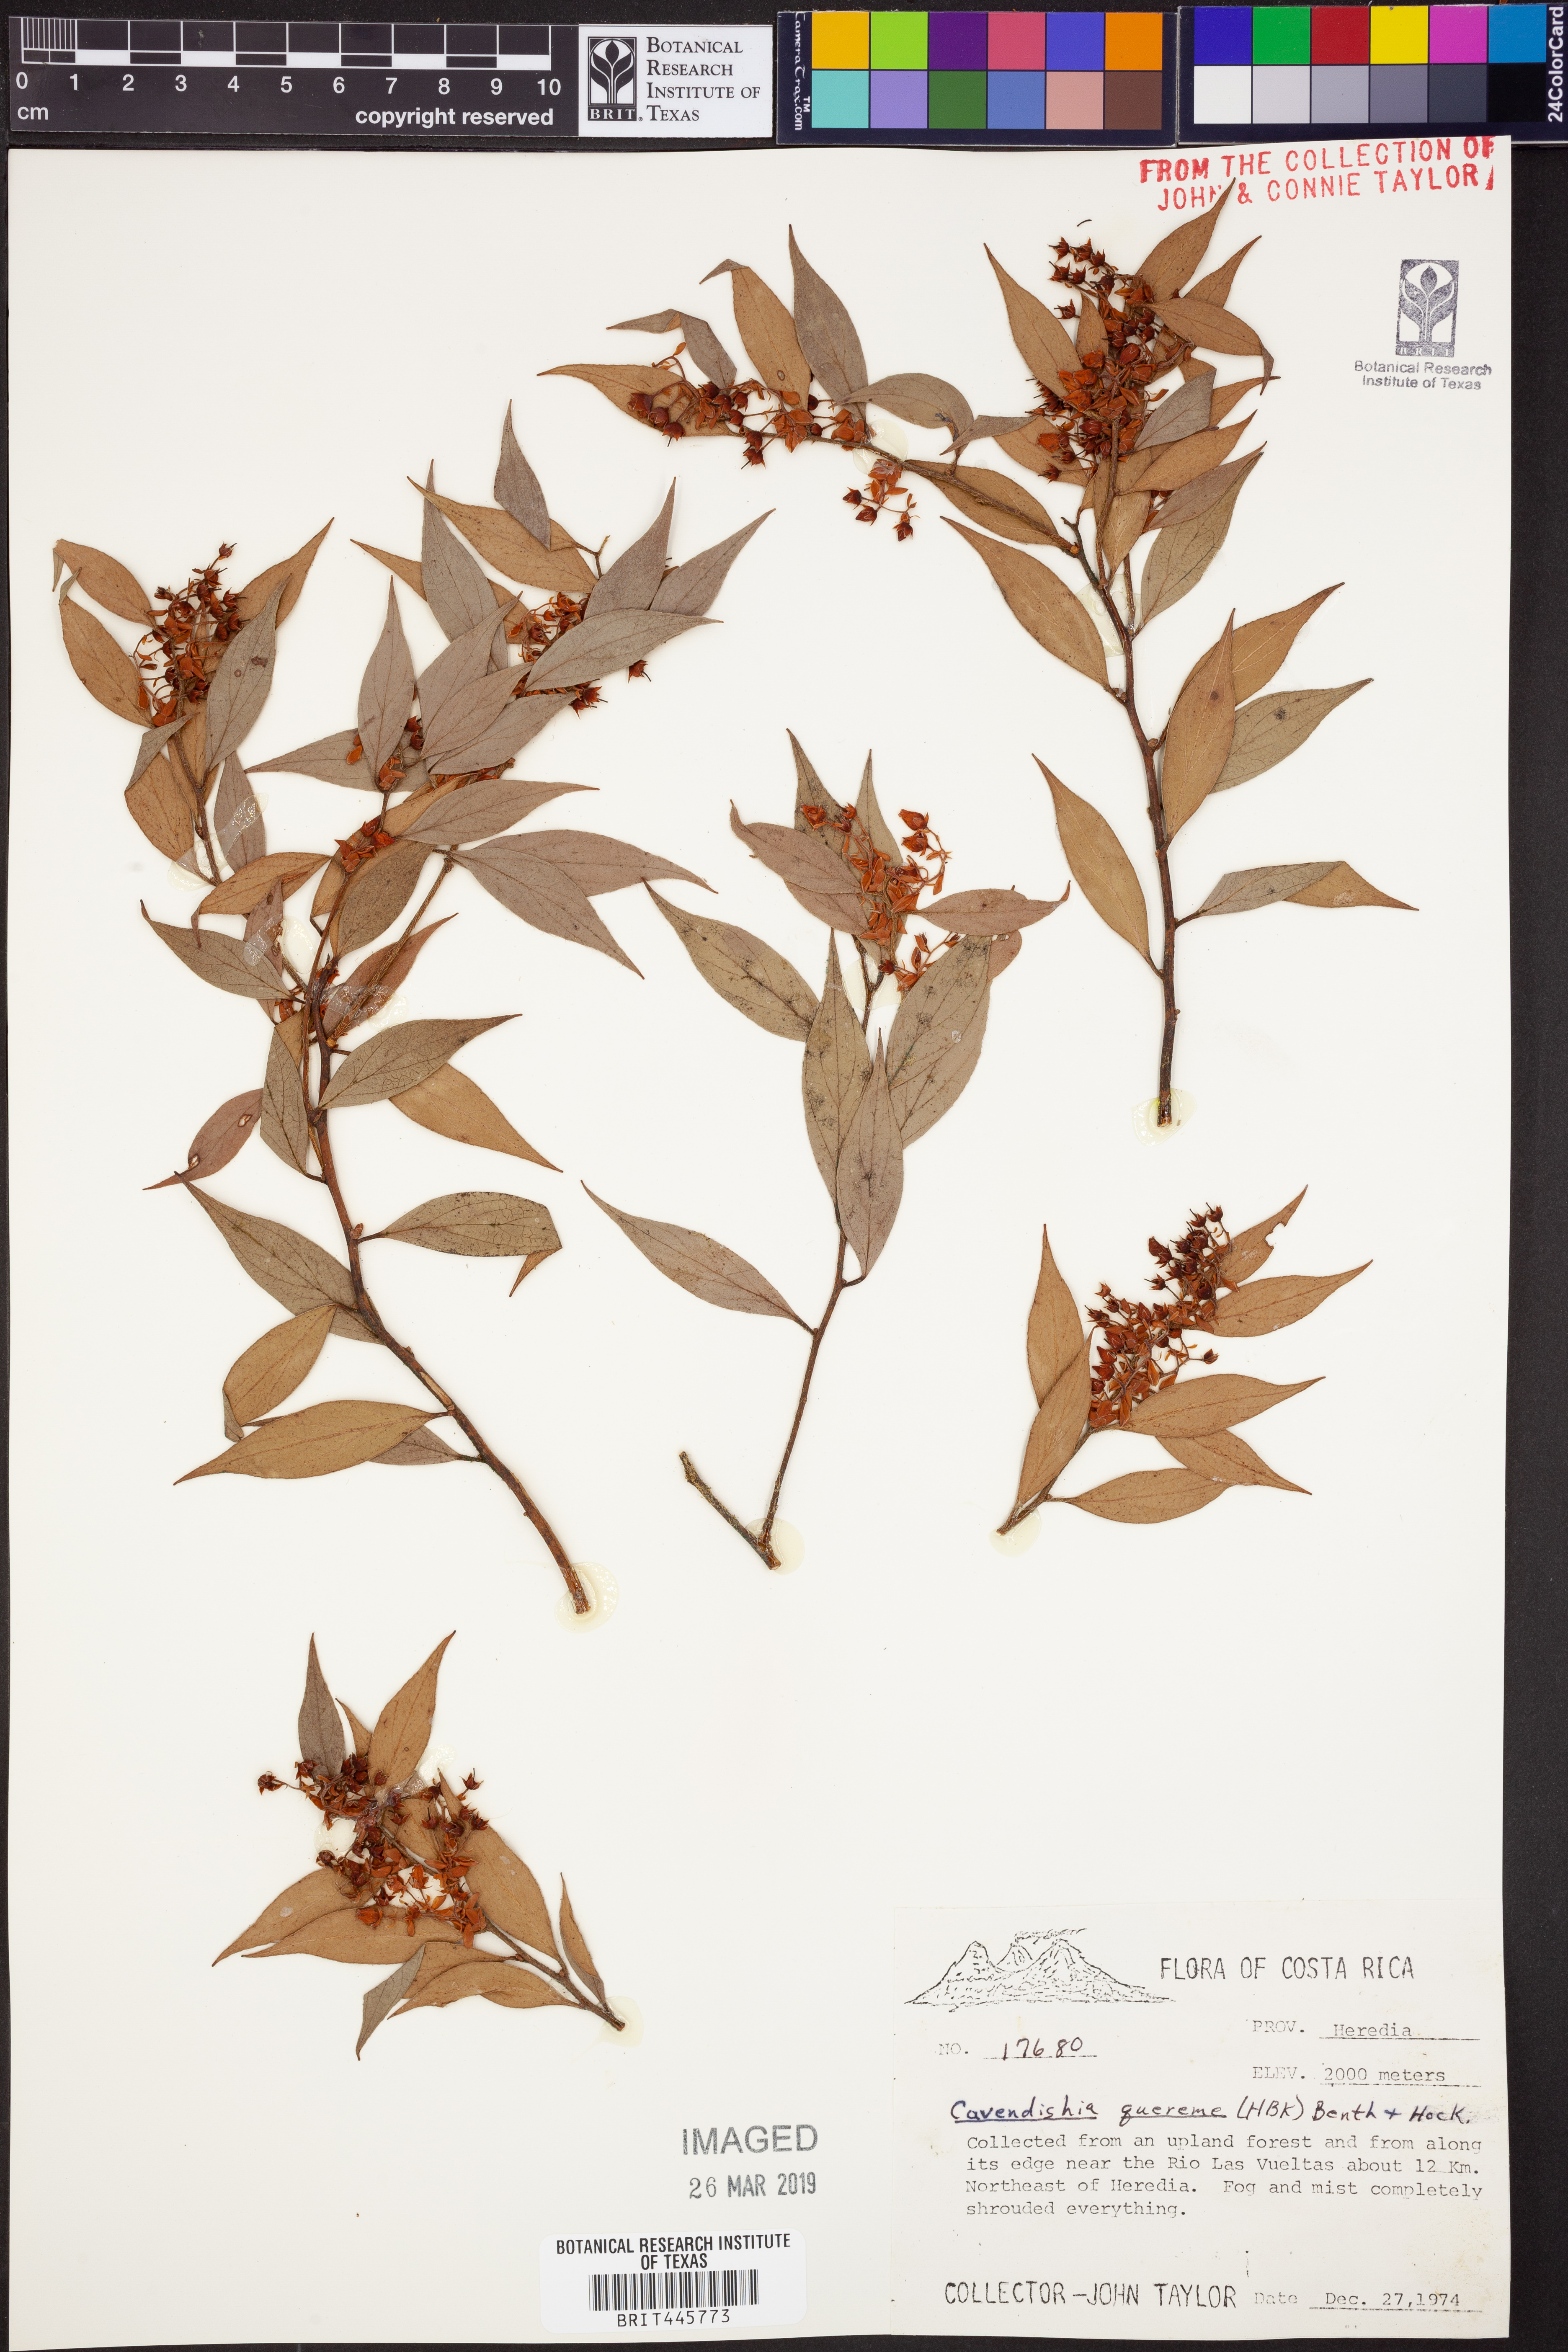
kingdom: Plantae
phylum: Tracheophyta
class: Magnoliopsida
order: Ericales
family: Ericaceae
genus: Cavendishia
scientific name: Cavendishia quereme
